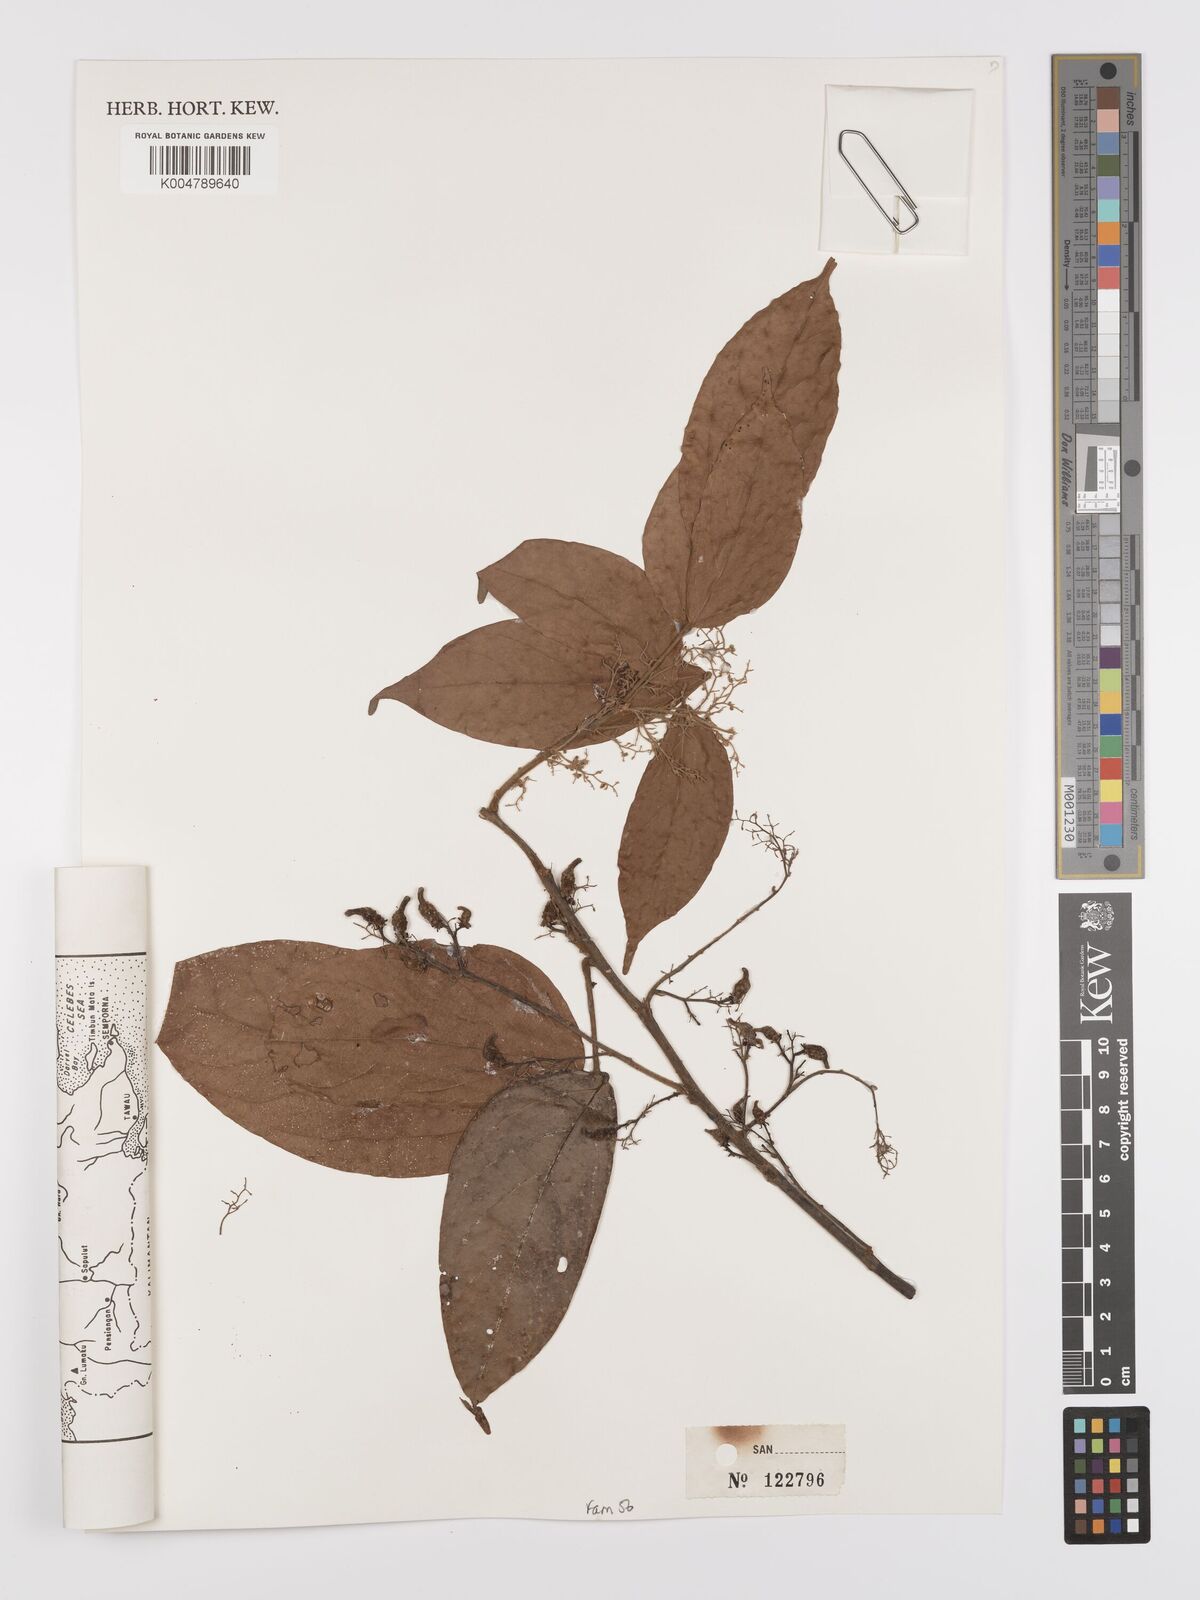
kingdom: Plantae
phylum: Tracheophyta
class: Magnoliopsida
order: Oxalidales
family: Connaraceae
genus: Agelaea
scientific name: Agelaea borneensis
